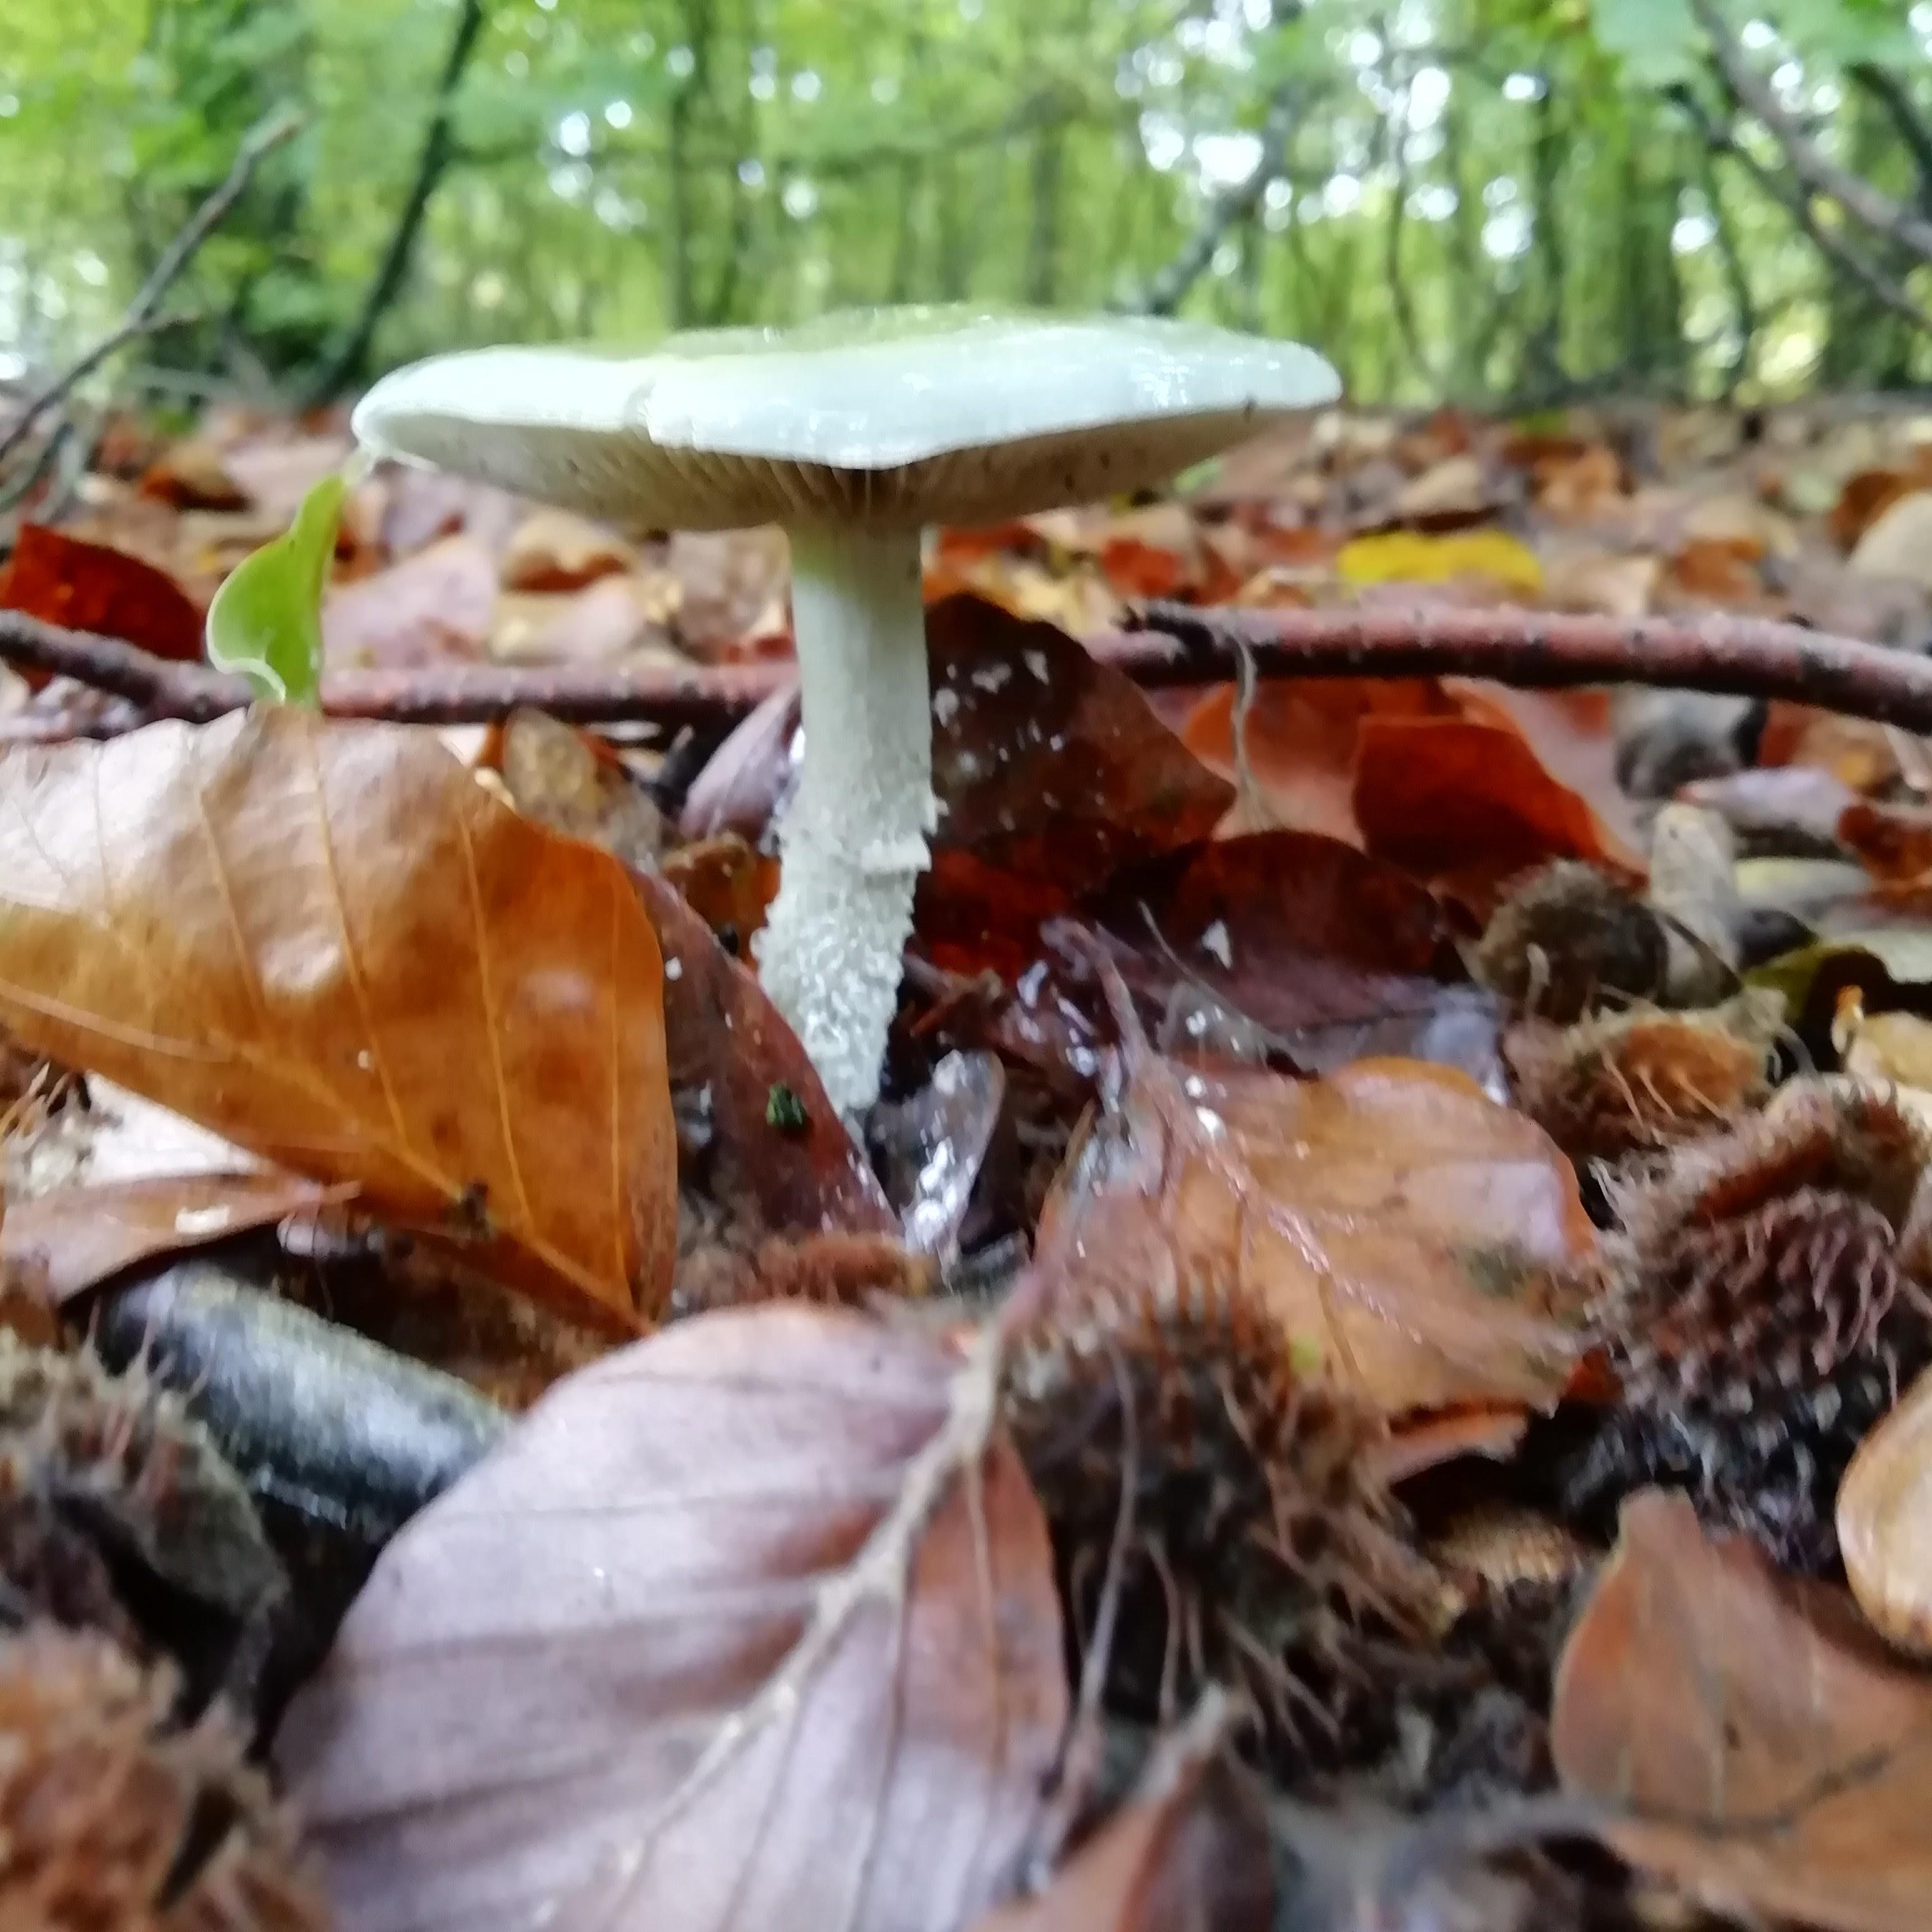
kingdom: Fungi
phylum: Basidiomycota
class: Agaricomycetes
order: Agaricales
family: Strophariaceae
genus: Stropharia
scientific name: Stropharia cyanea
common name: blågrøn bredblad
